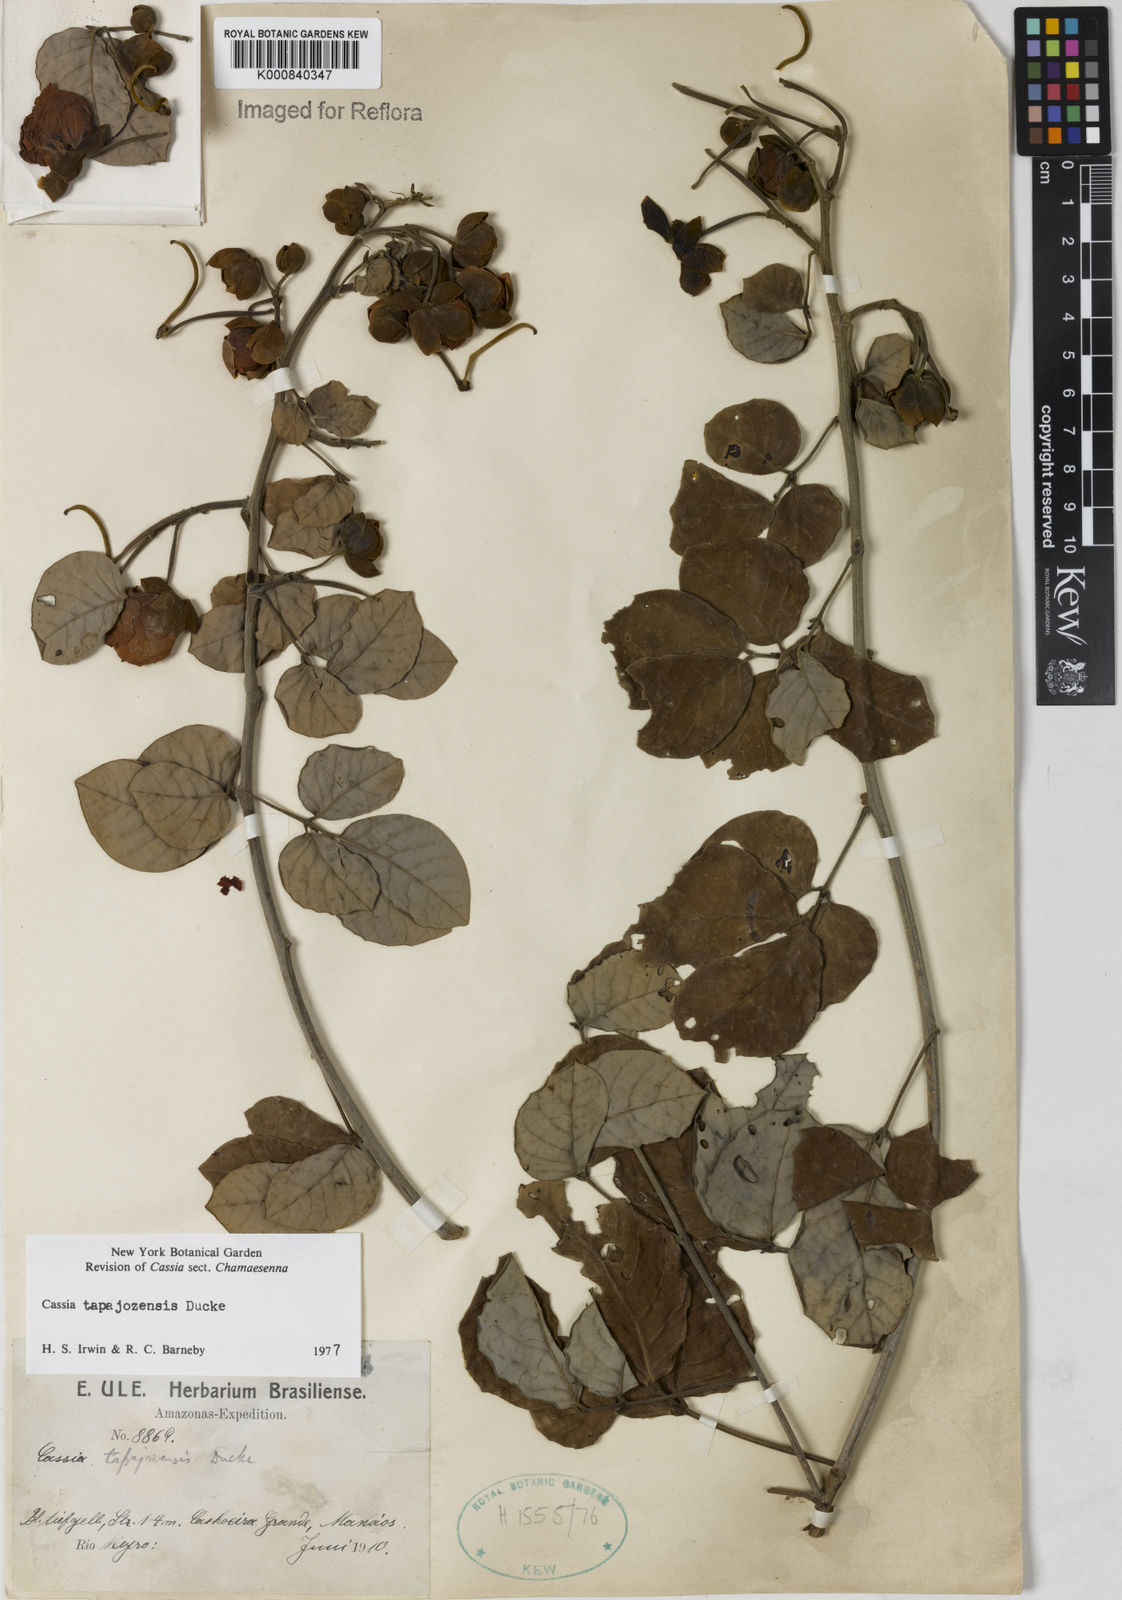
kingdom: Plantae
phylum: Tracheophyta
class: Magnoliopsida
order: Fabales
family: Fabaceae
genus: Senna
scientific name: Senna tapajozensis
